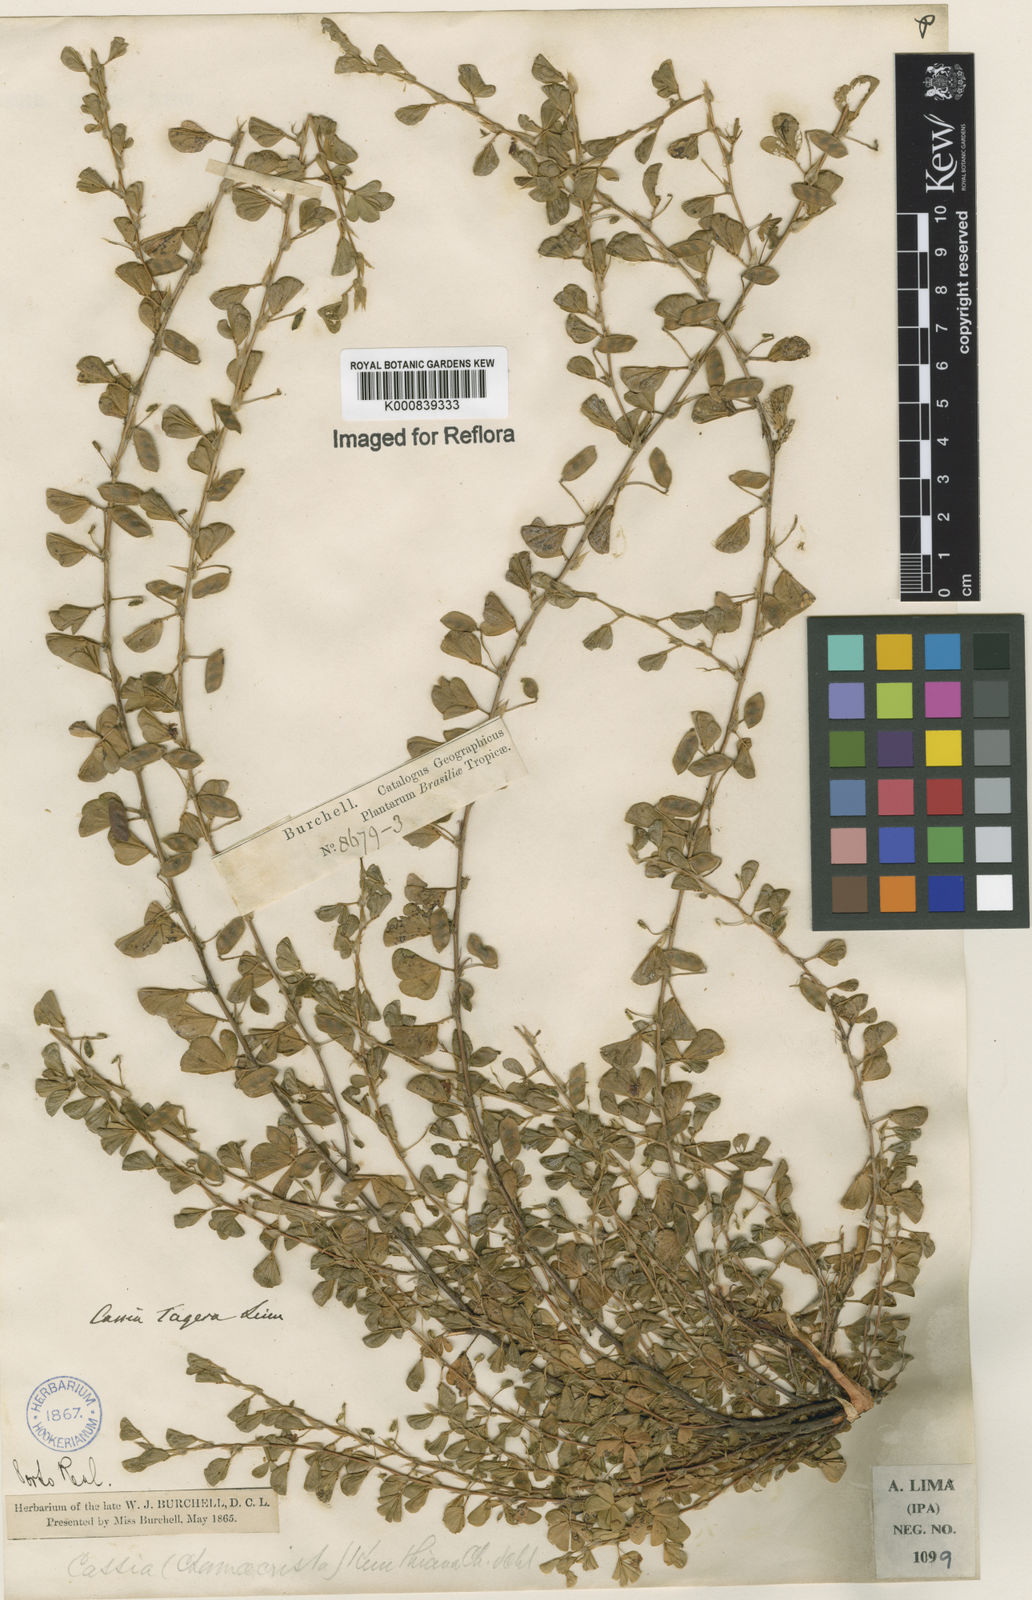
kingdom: Plantae
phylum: Tracheophyta
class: Magnoliopsida
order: Fabales
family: Fabaceae
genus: Chamaecrista
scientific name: Chamaecrista kunthiana
